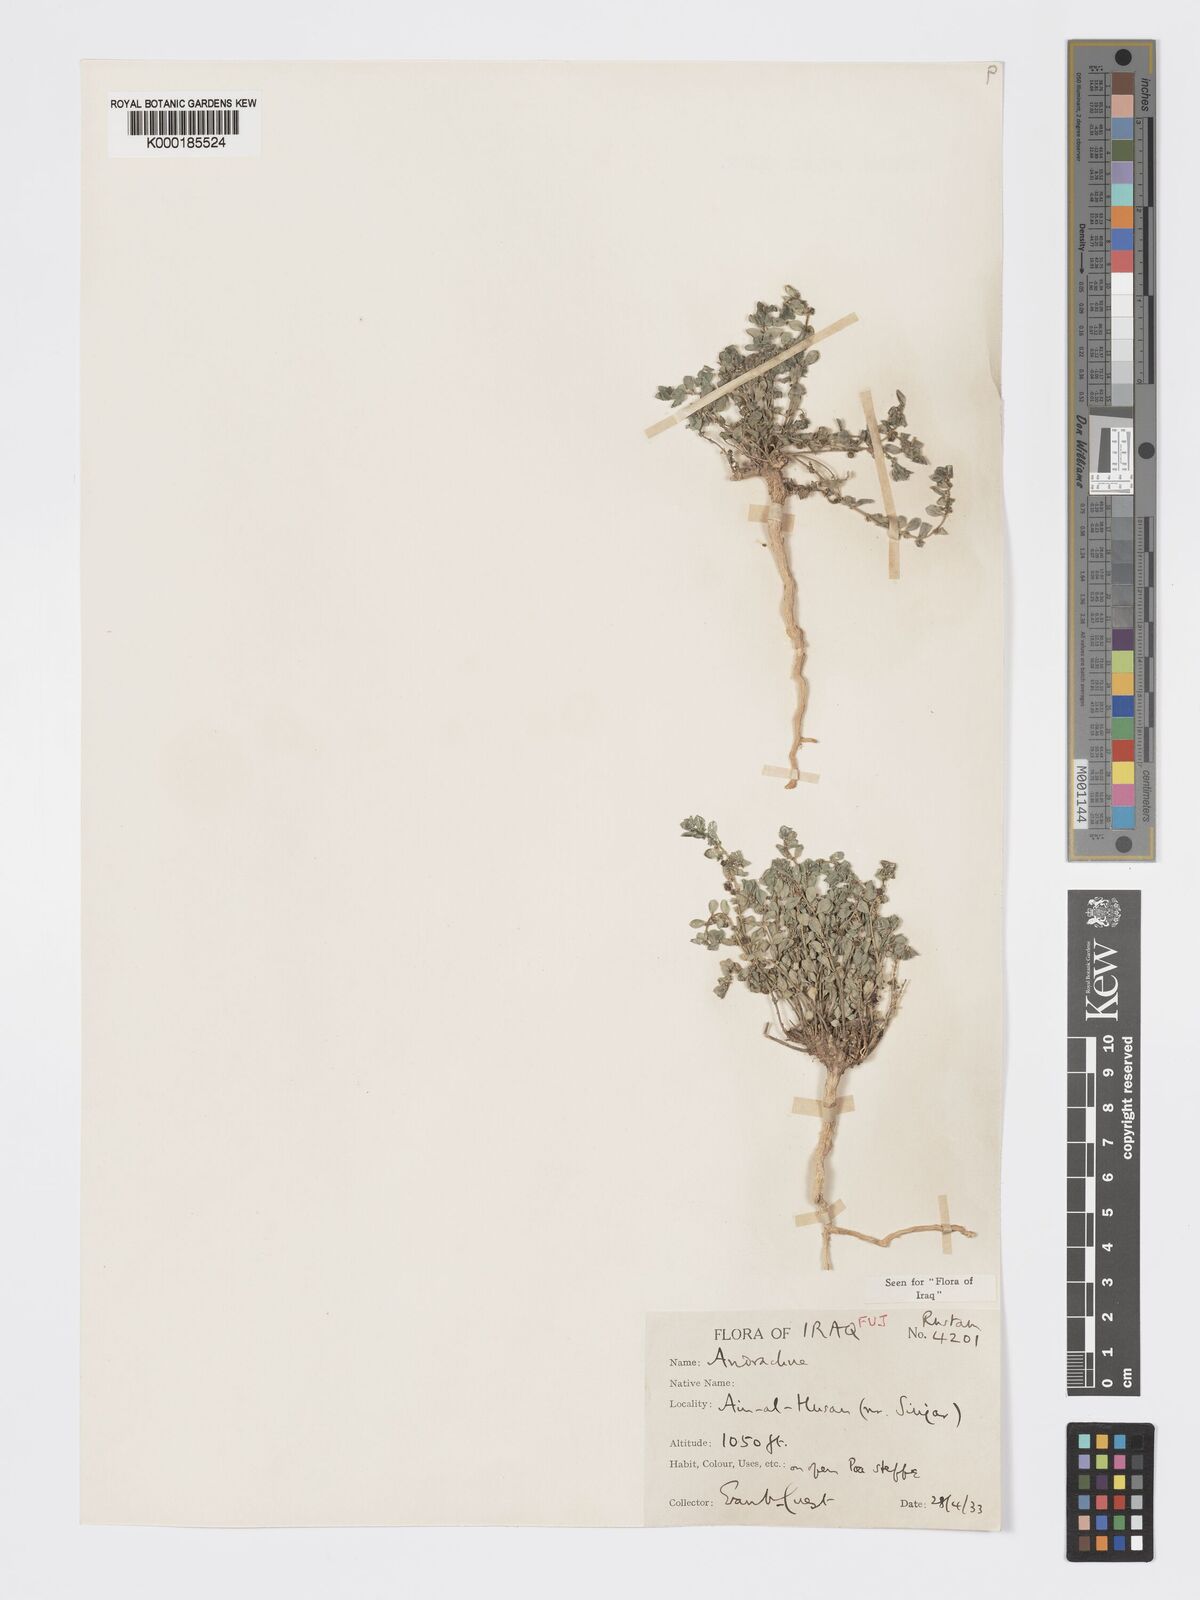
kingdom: Plantae
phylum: Tracheophyta
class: Magnoliopsida
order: Malpighiales
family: Phyllanthaceae
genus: Andrachne
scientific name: Andrachne telephioides
